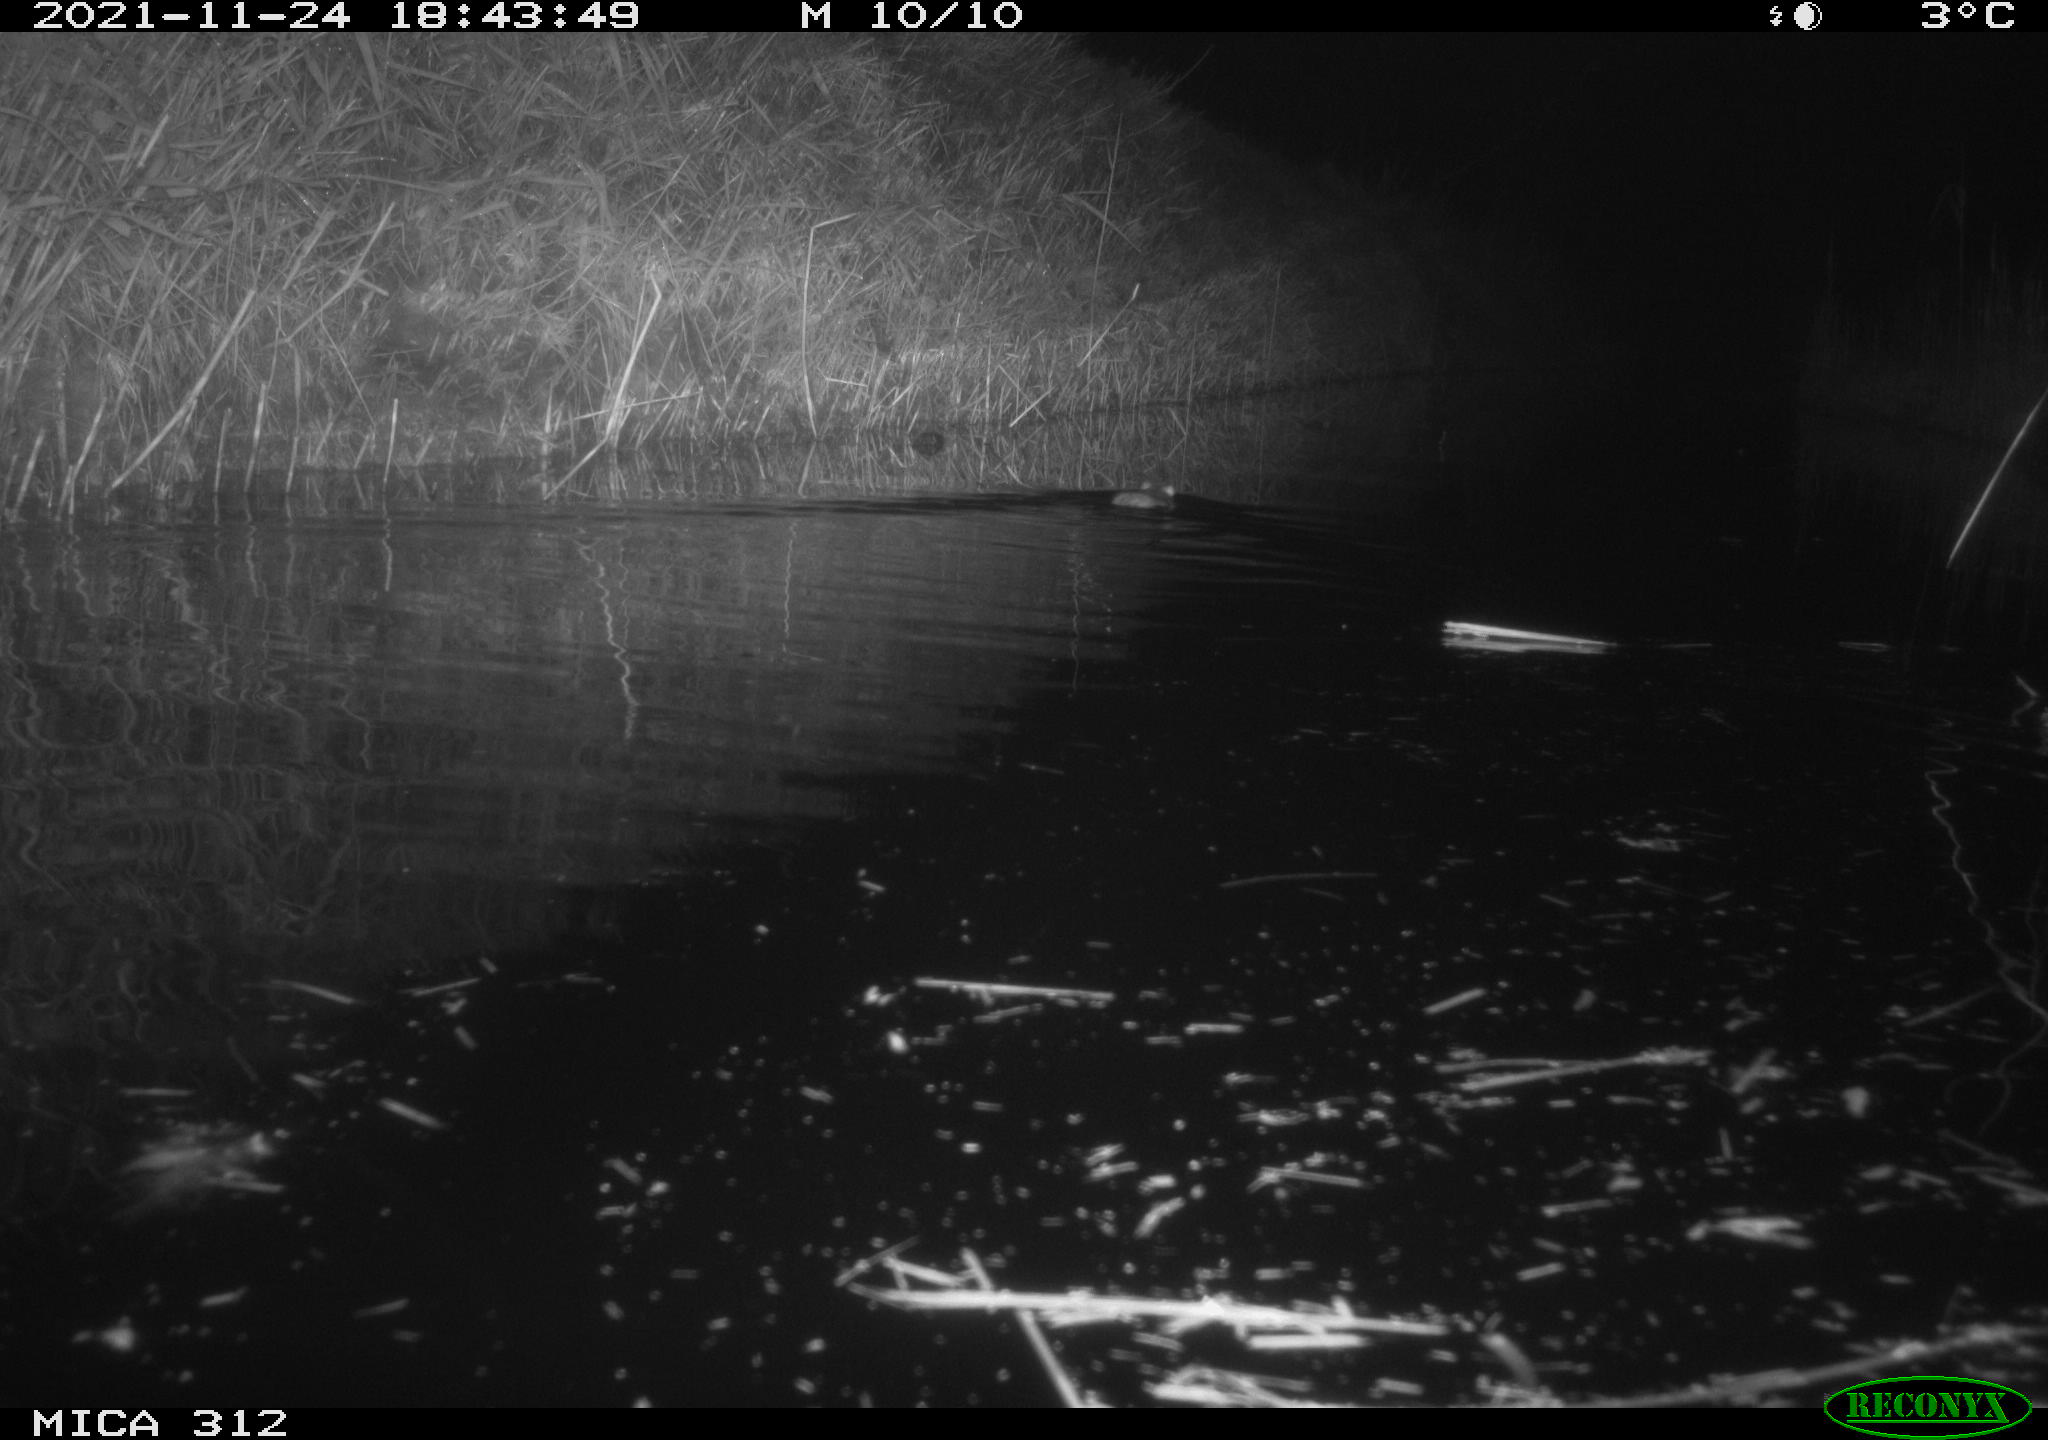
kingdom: Animalia
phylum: Chordata
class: Mammalia
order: Rodentia
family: Muridae
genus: Rattus
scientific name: Rattus norvegicus
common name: Brown rat
